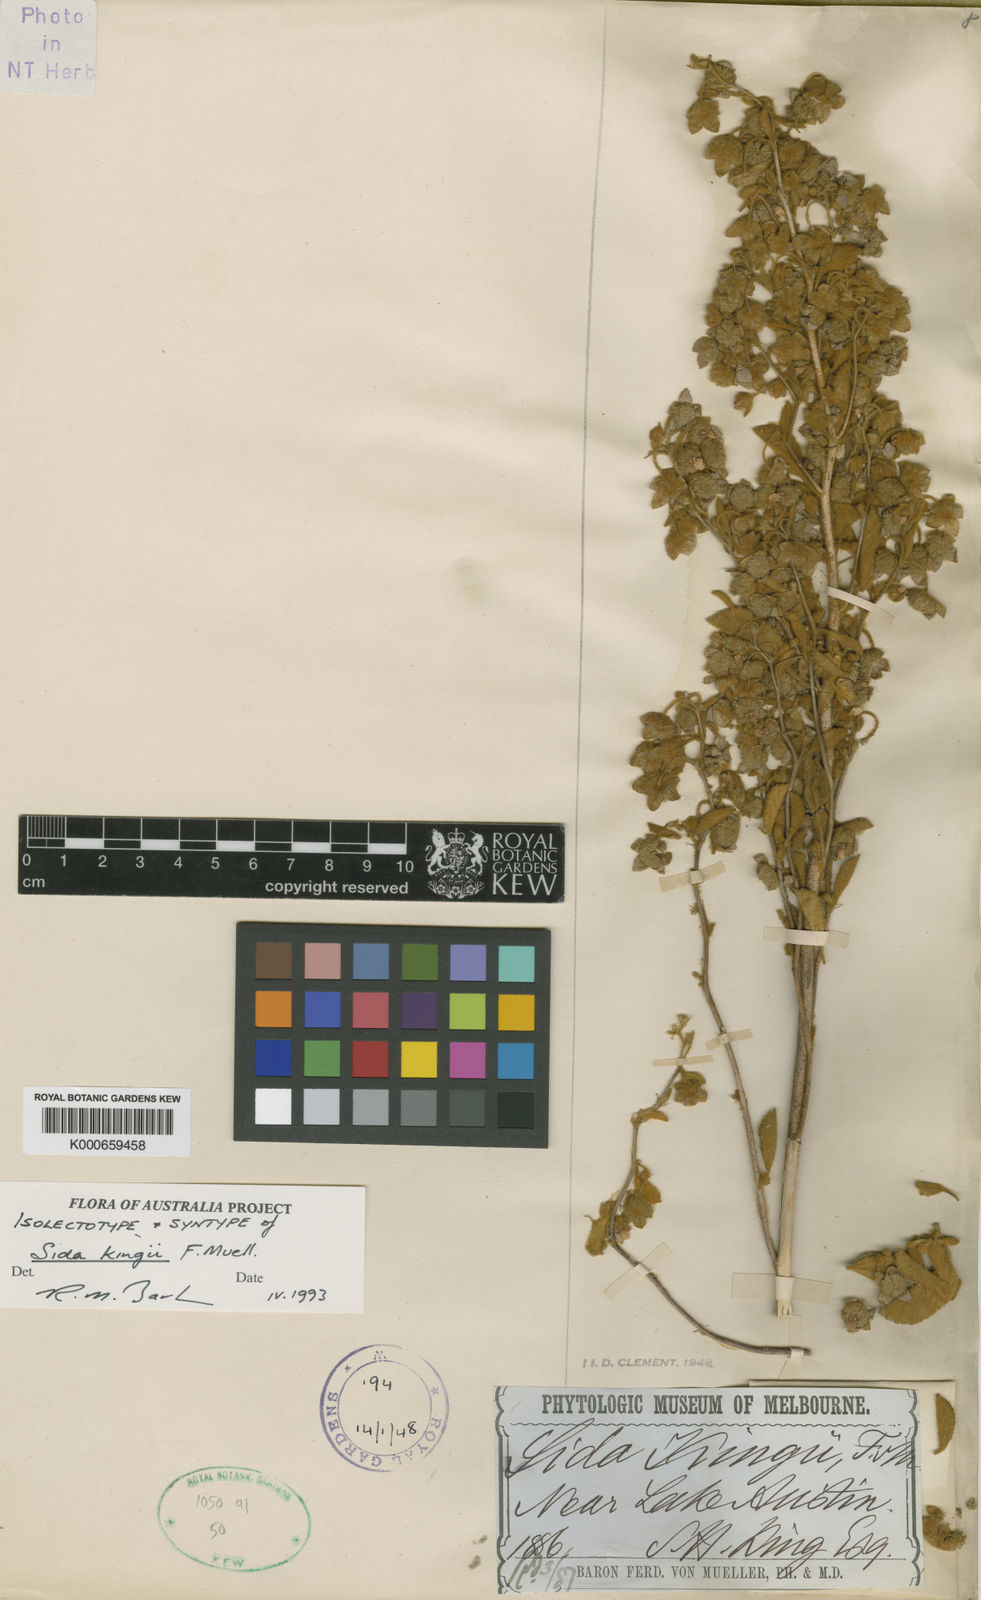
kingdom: Plantae
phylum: Tracheophyta
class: Magnoliopsida
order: Malvales
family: Malvaceae
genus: Sida
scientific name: Sida kingii
